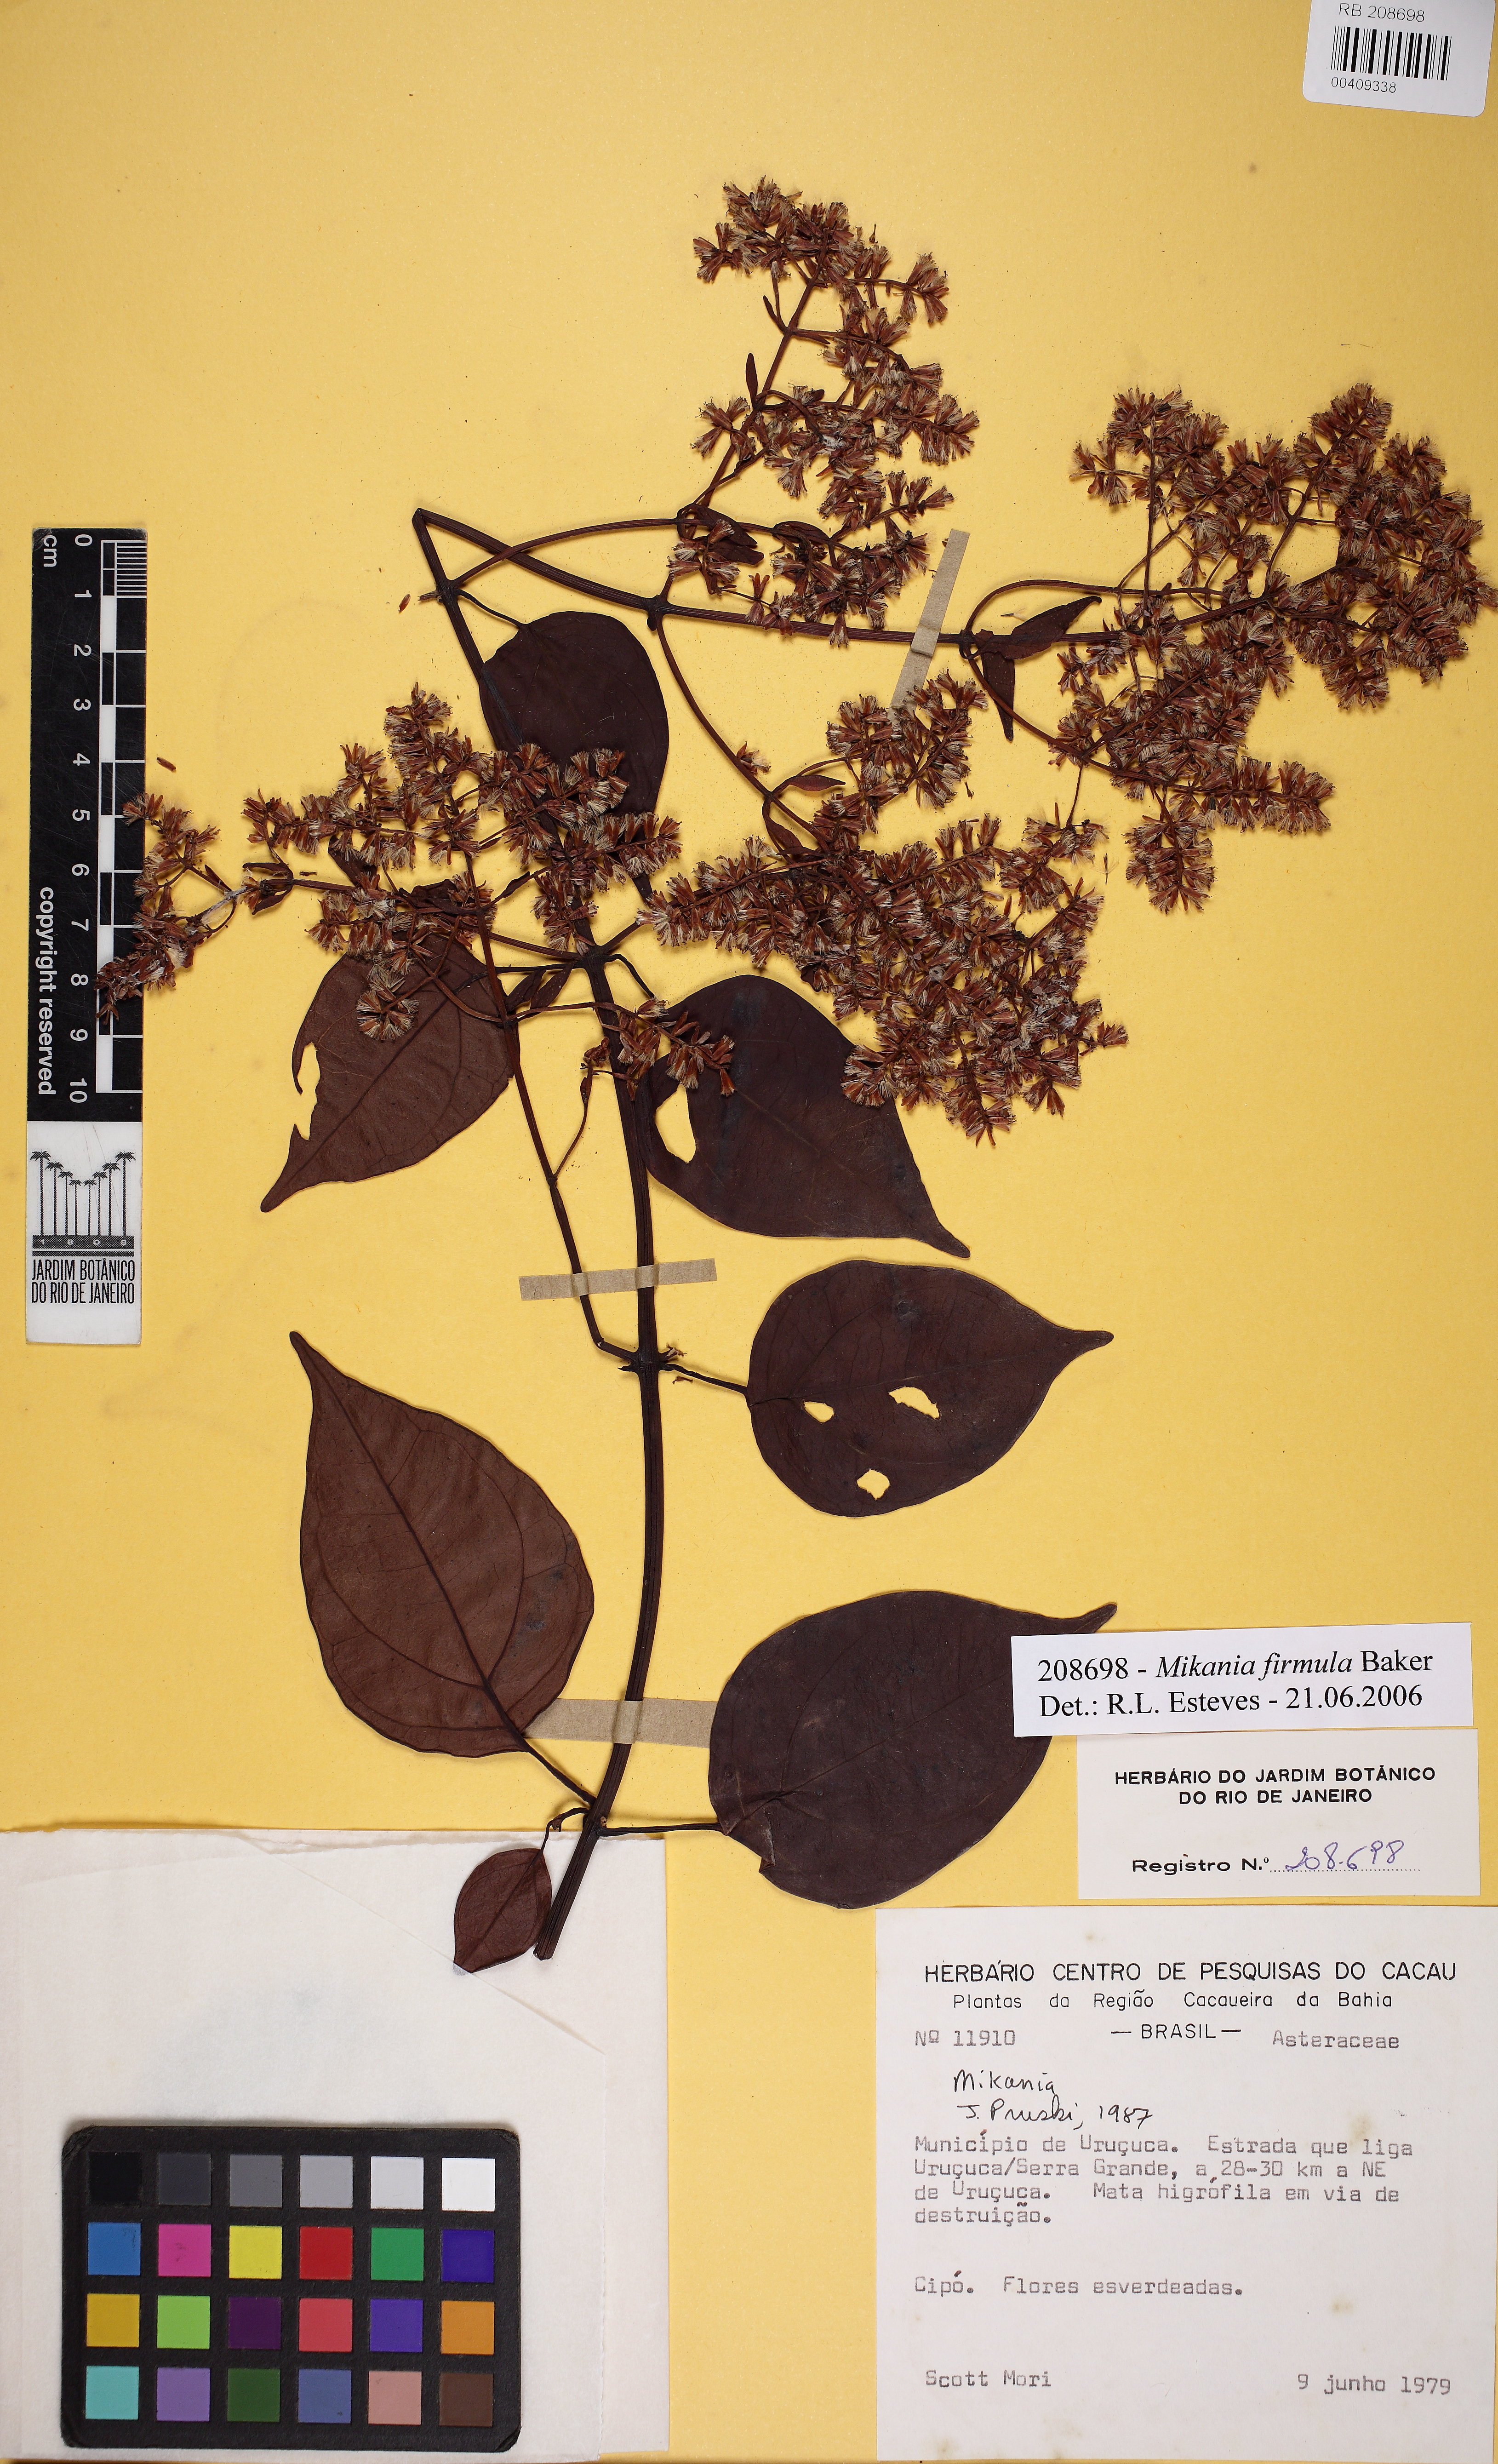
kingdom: Plantae
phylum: Tracheophyta
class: Magnoliopsida
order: Asterales
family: Asteraceae
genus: Mikania
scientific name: Mikania firmula
